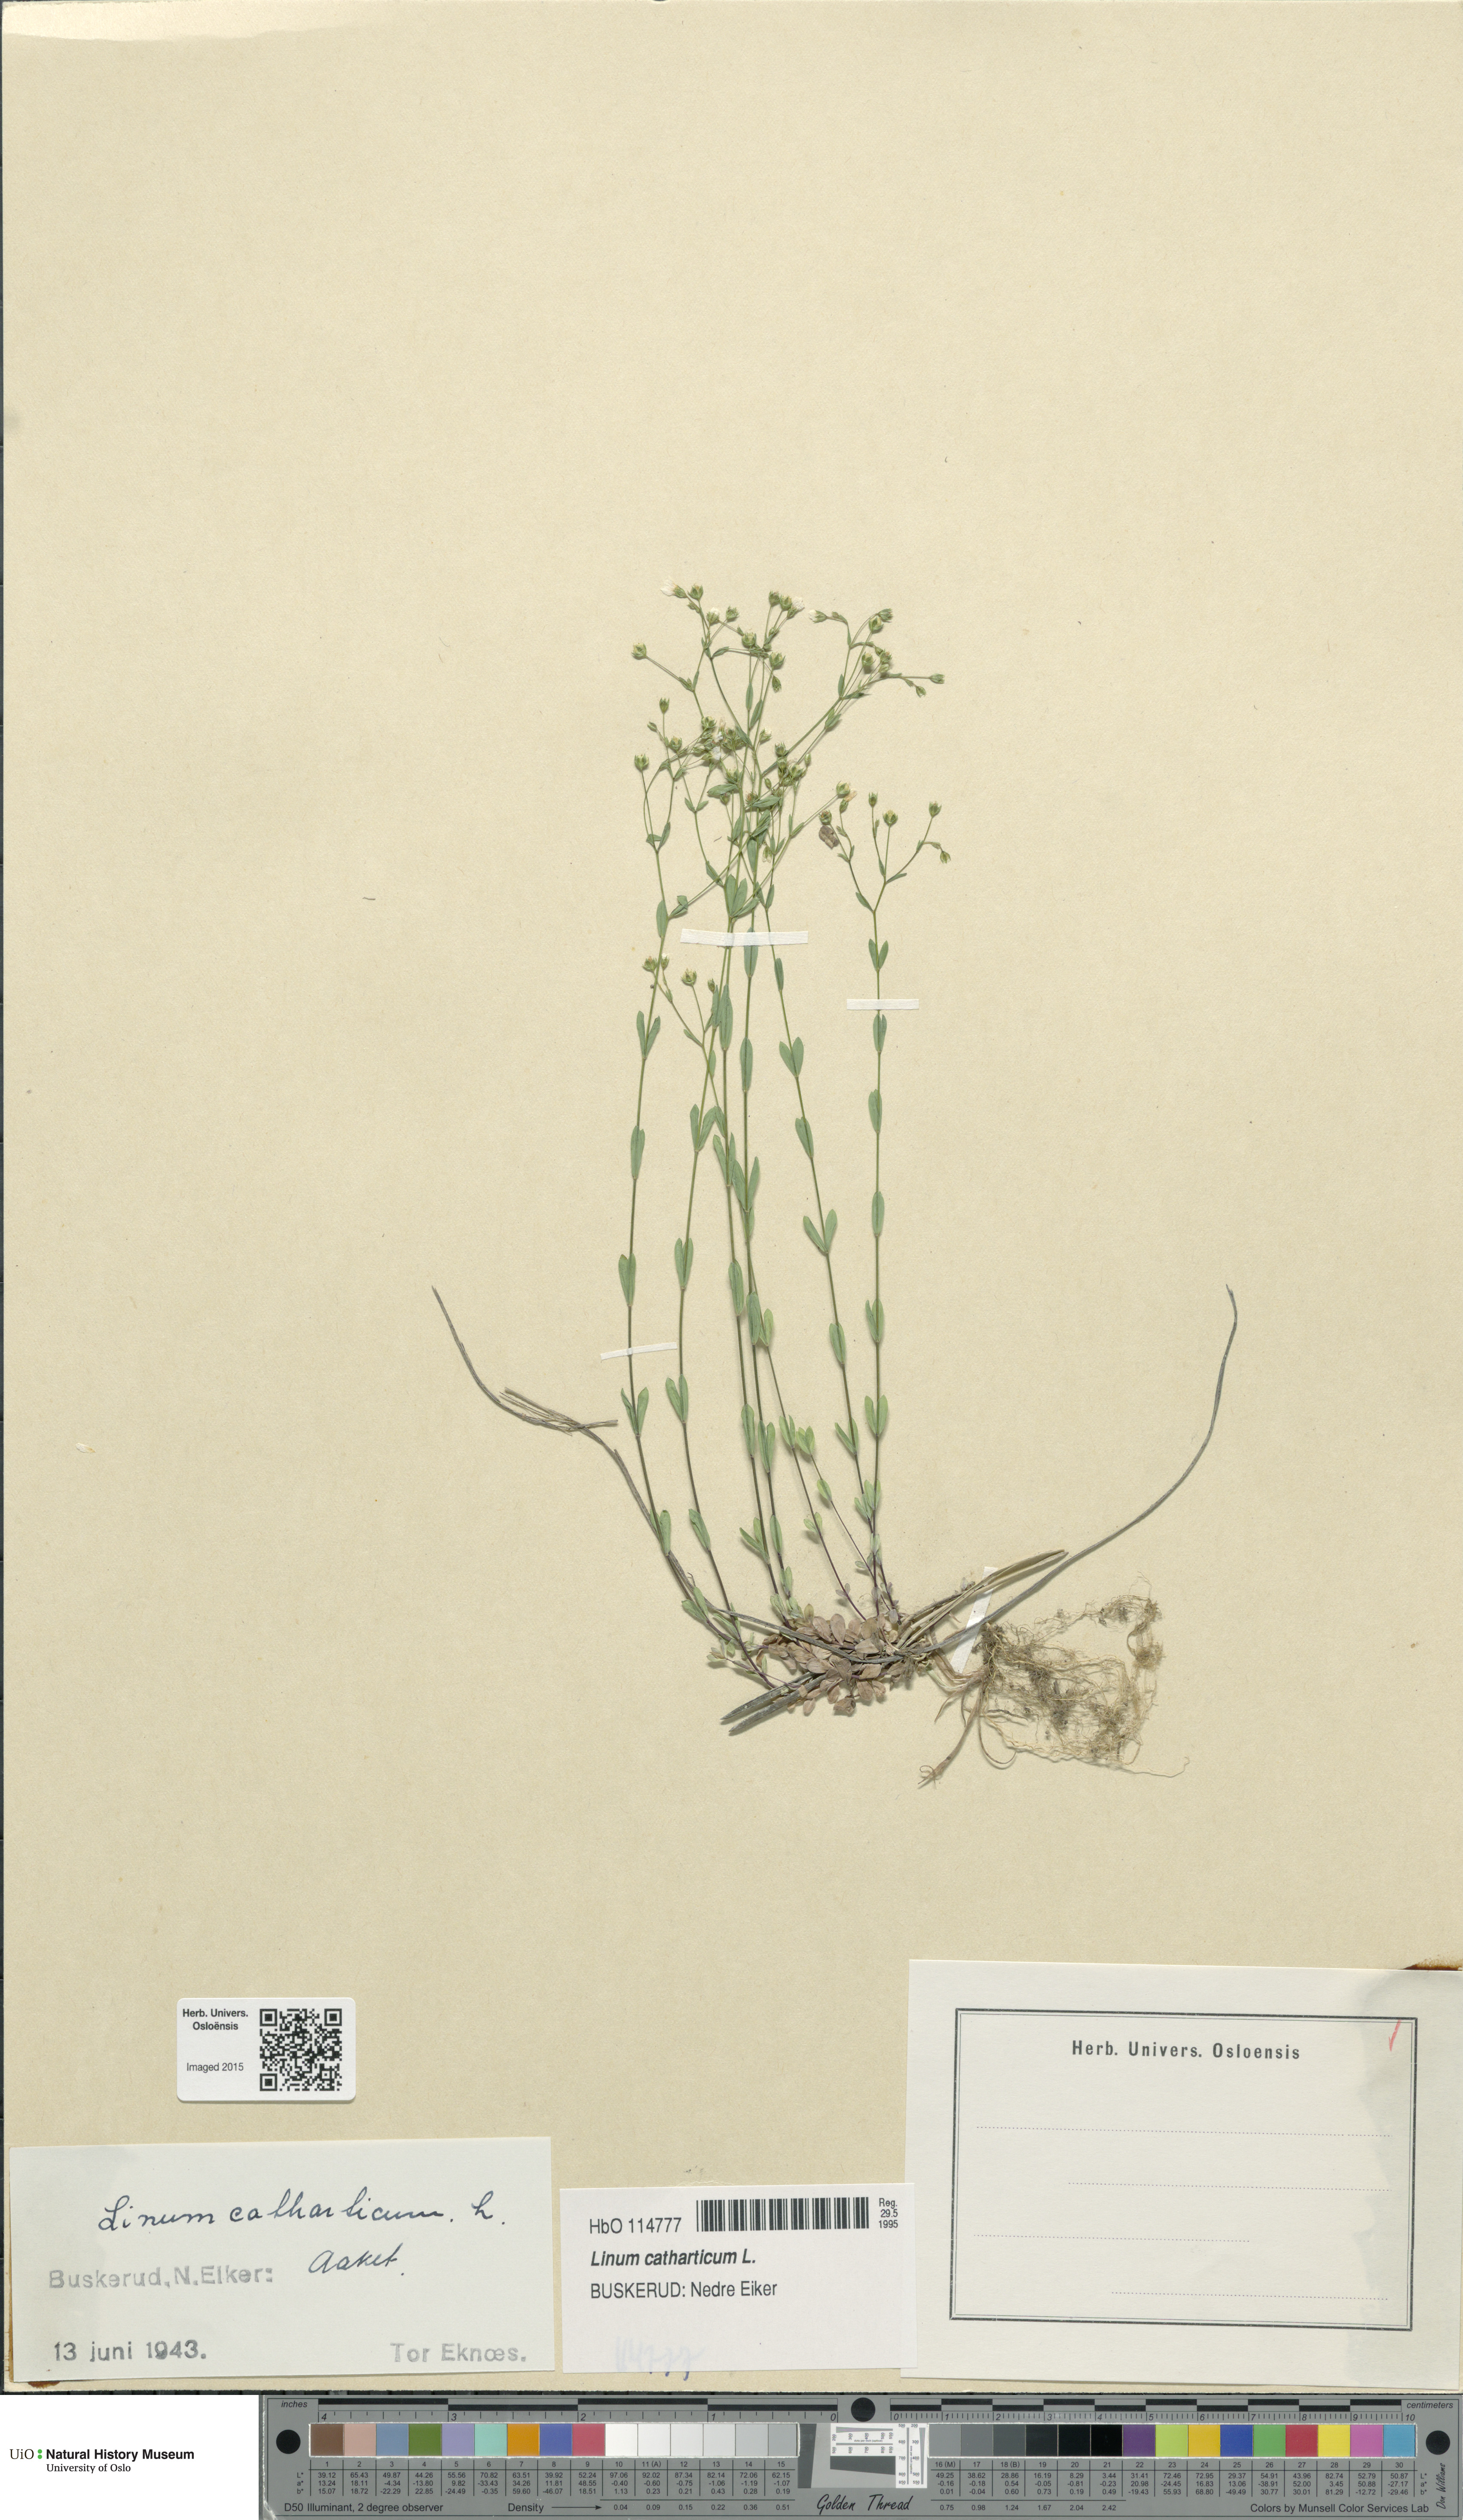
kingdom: Plantae
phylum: Tracheophyta
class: Magnoliopsida
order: Malpighiales
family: Linaceae
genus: Linum
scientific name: Linum catharticum
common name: Fairy flax
